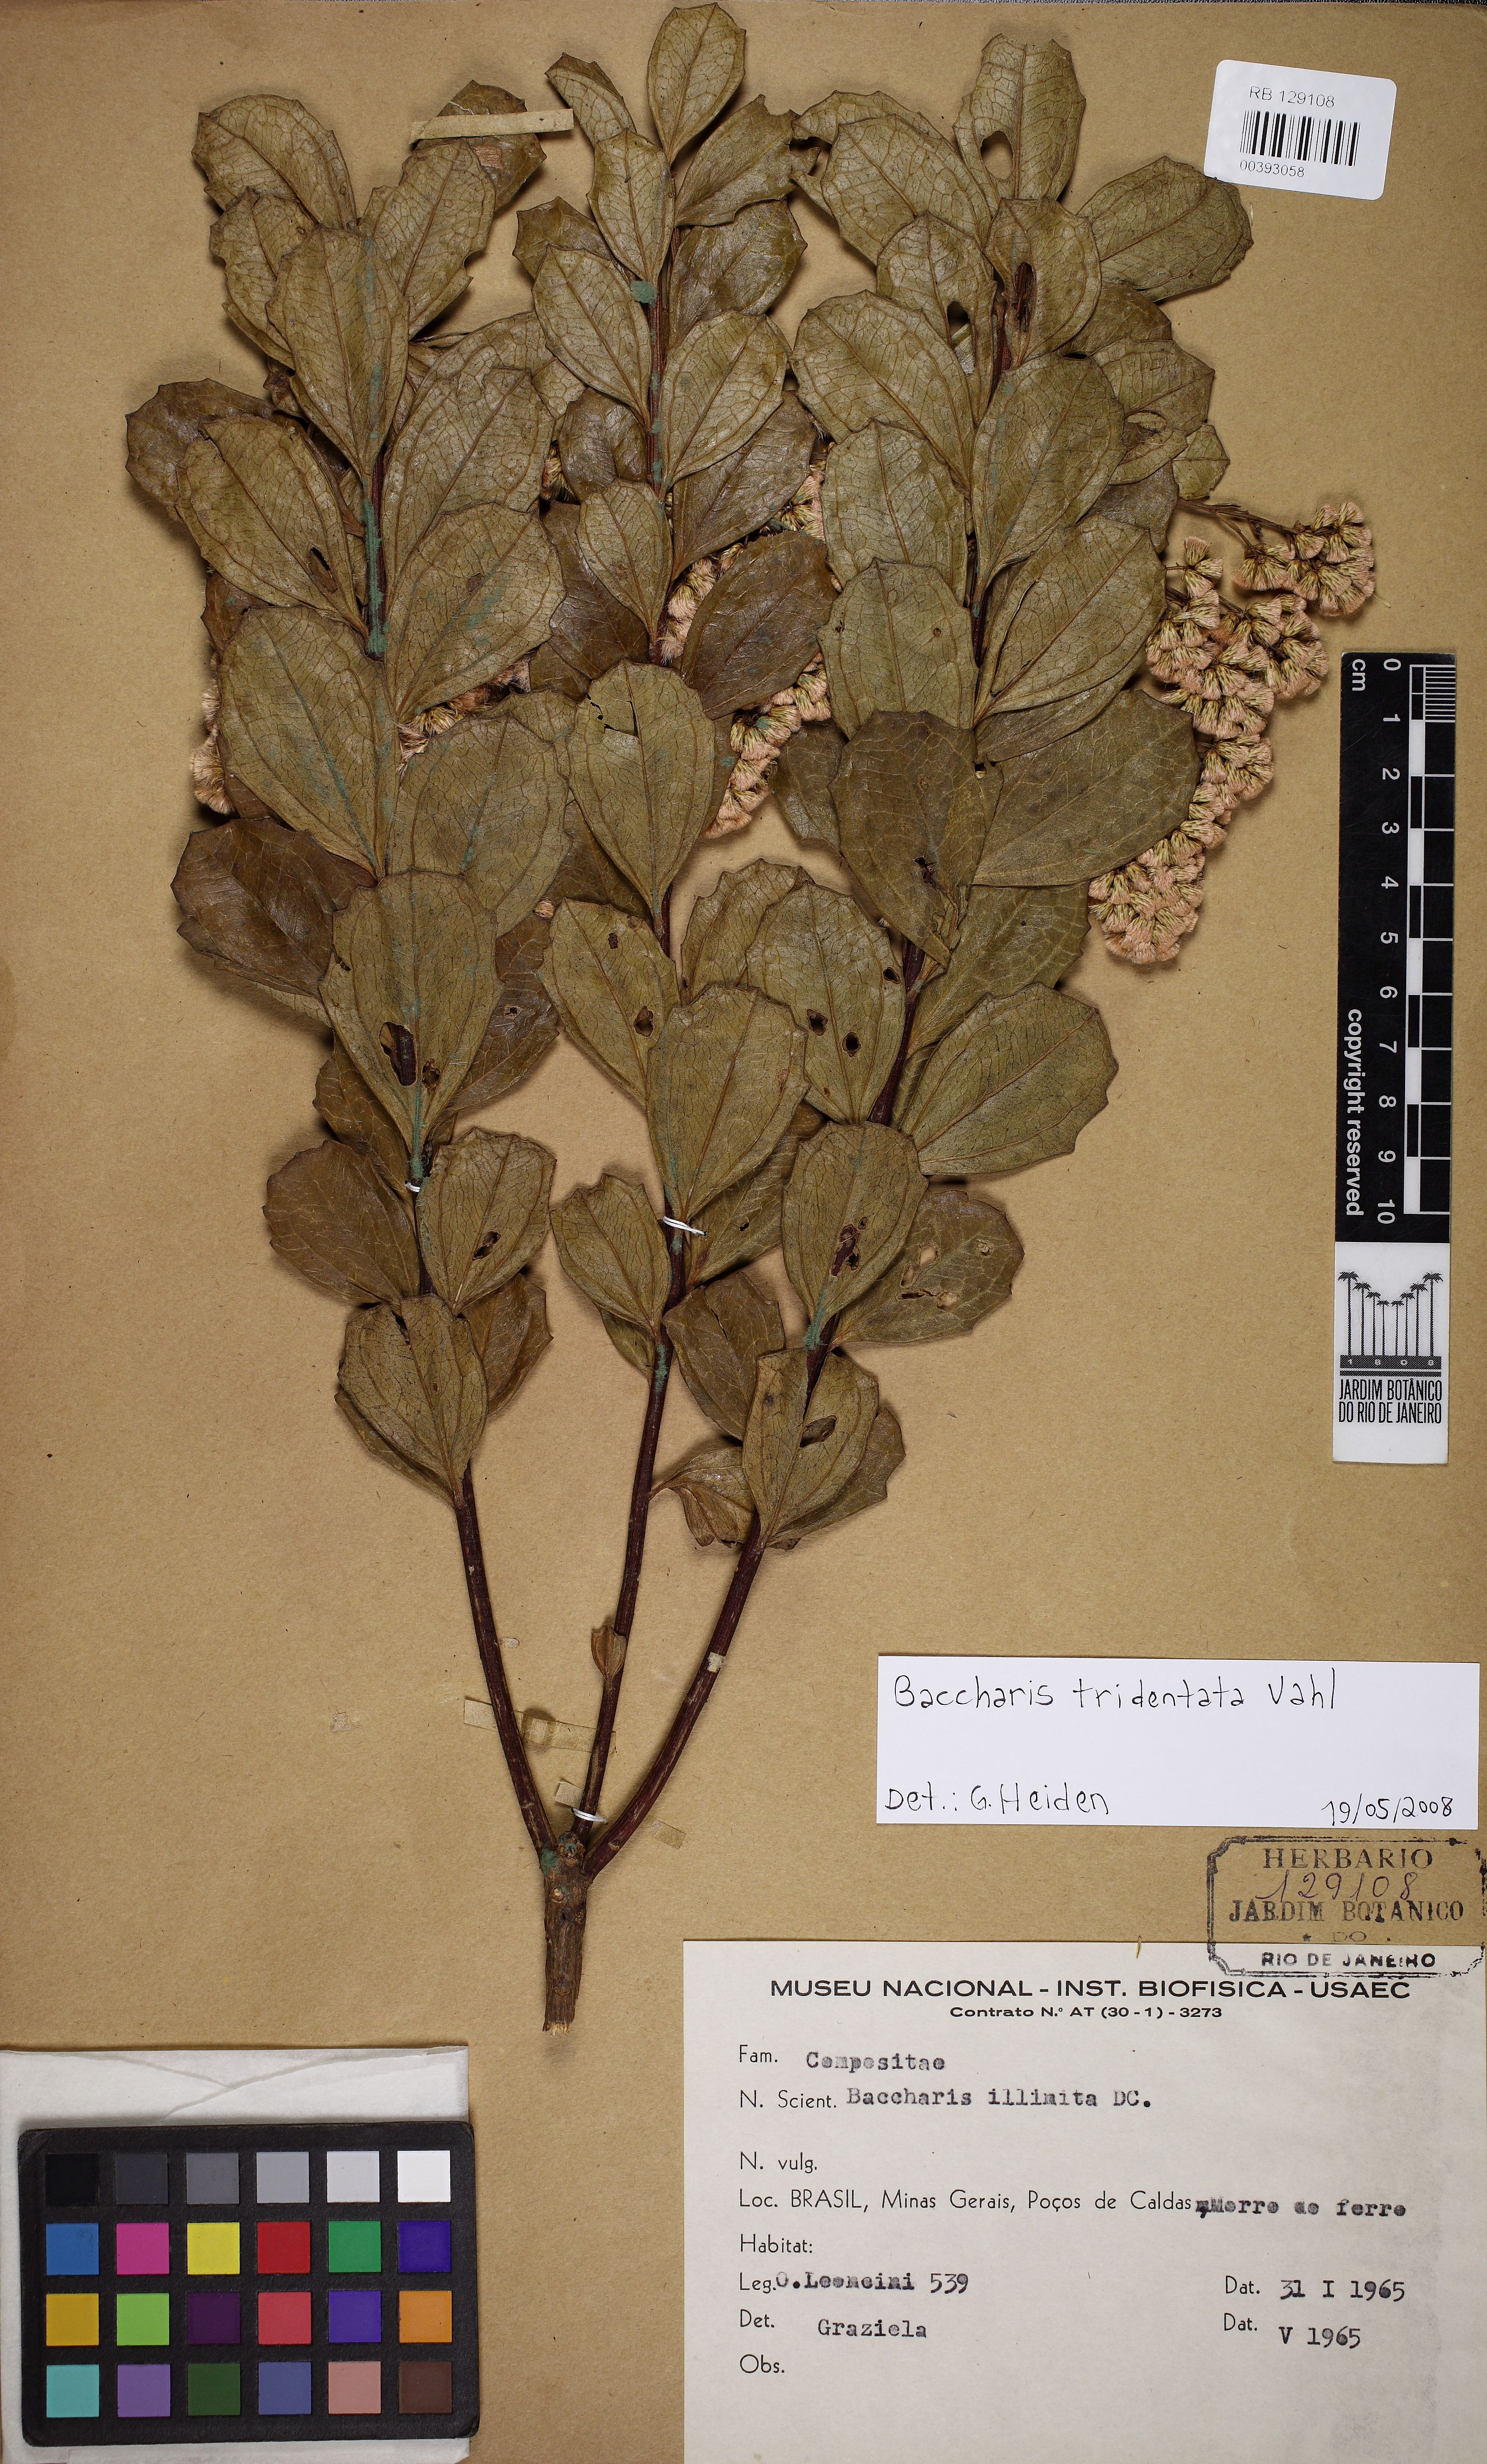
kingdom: Plantae
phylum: Tracheophyta
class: Magnoliopsida
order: Asterales
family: Asteraceae
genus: Baccharis
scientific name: Baccharis tridentata
